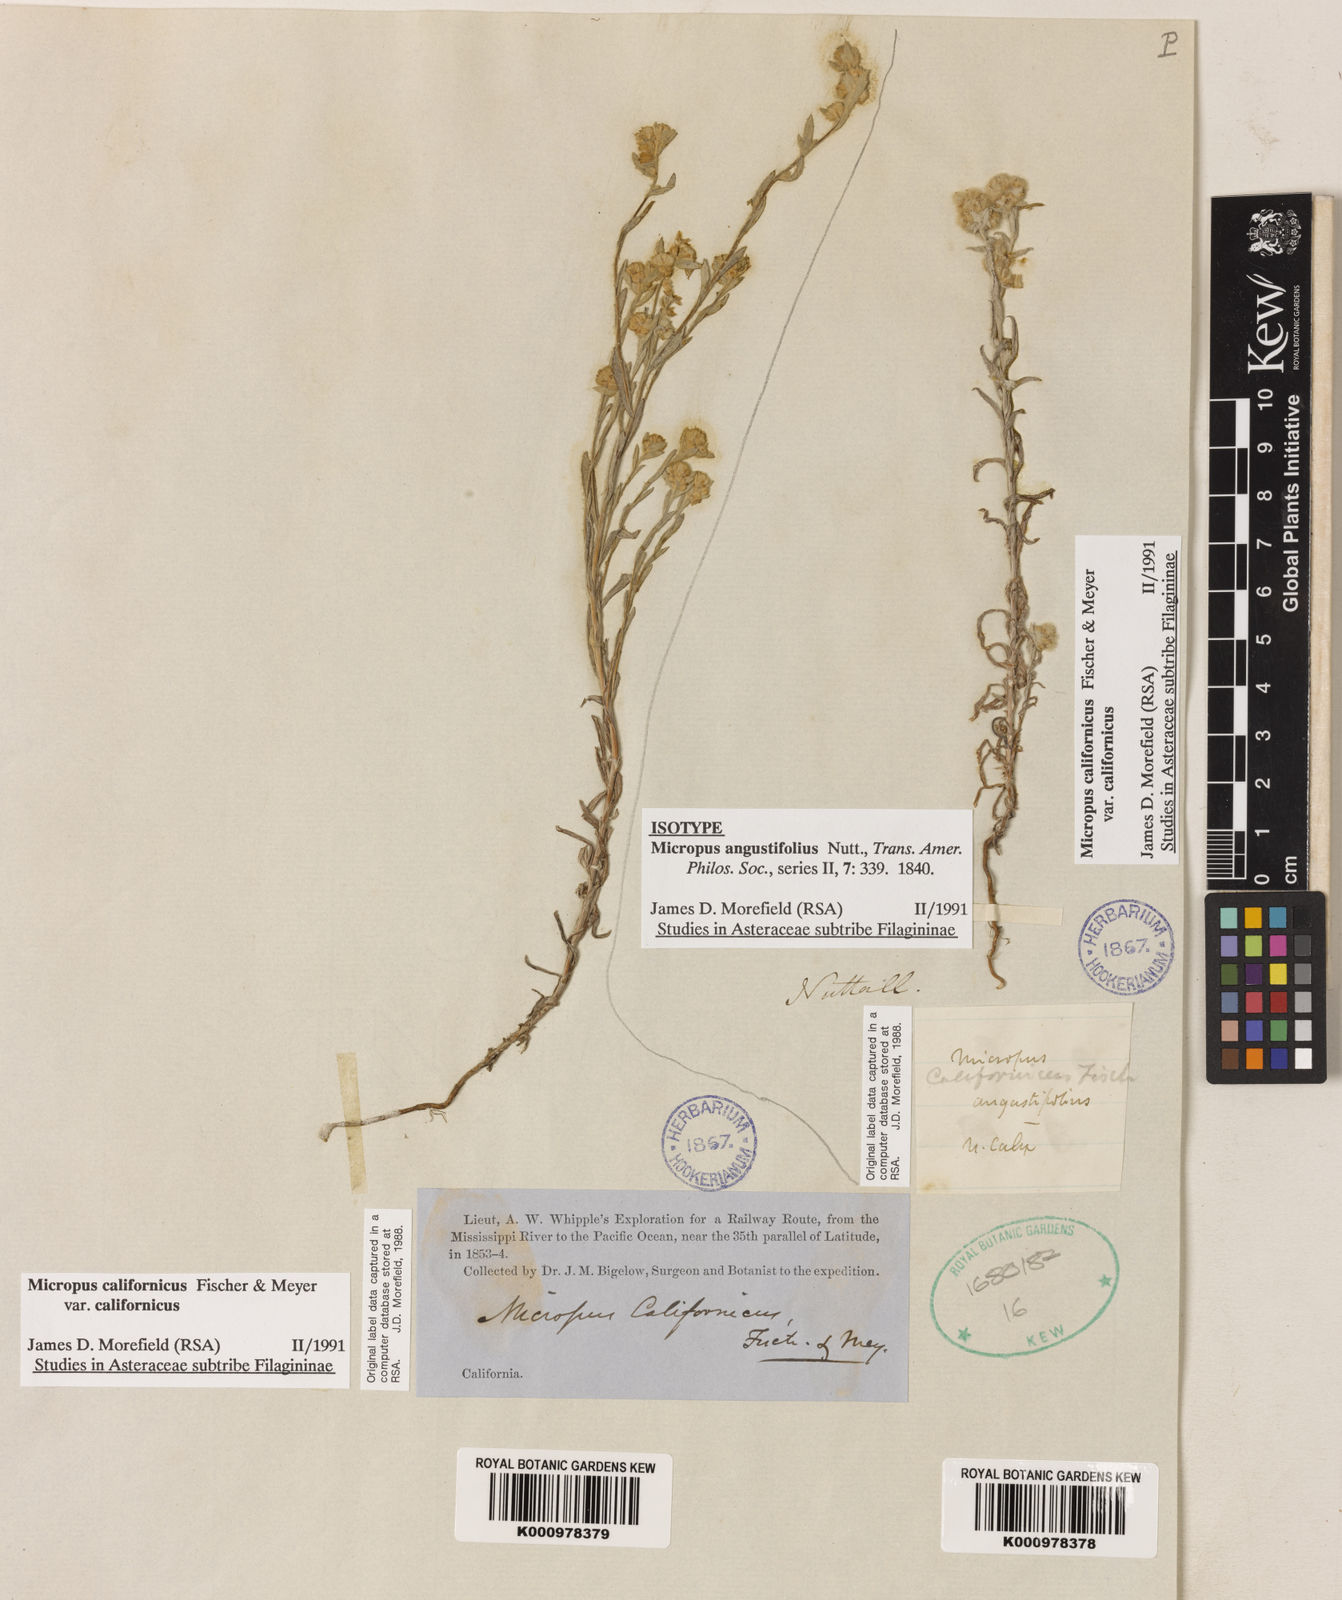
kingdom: Plantae
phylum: Tracheophyta
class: Magnoliopsida
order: Asterales
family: Asteraceae
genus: Bombycilaena
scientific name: Bombycilaena californica
